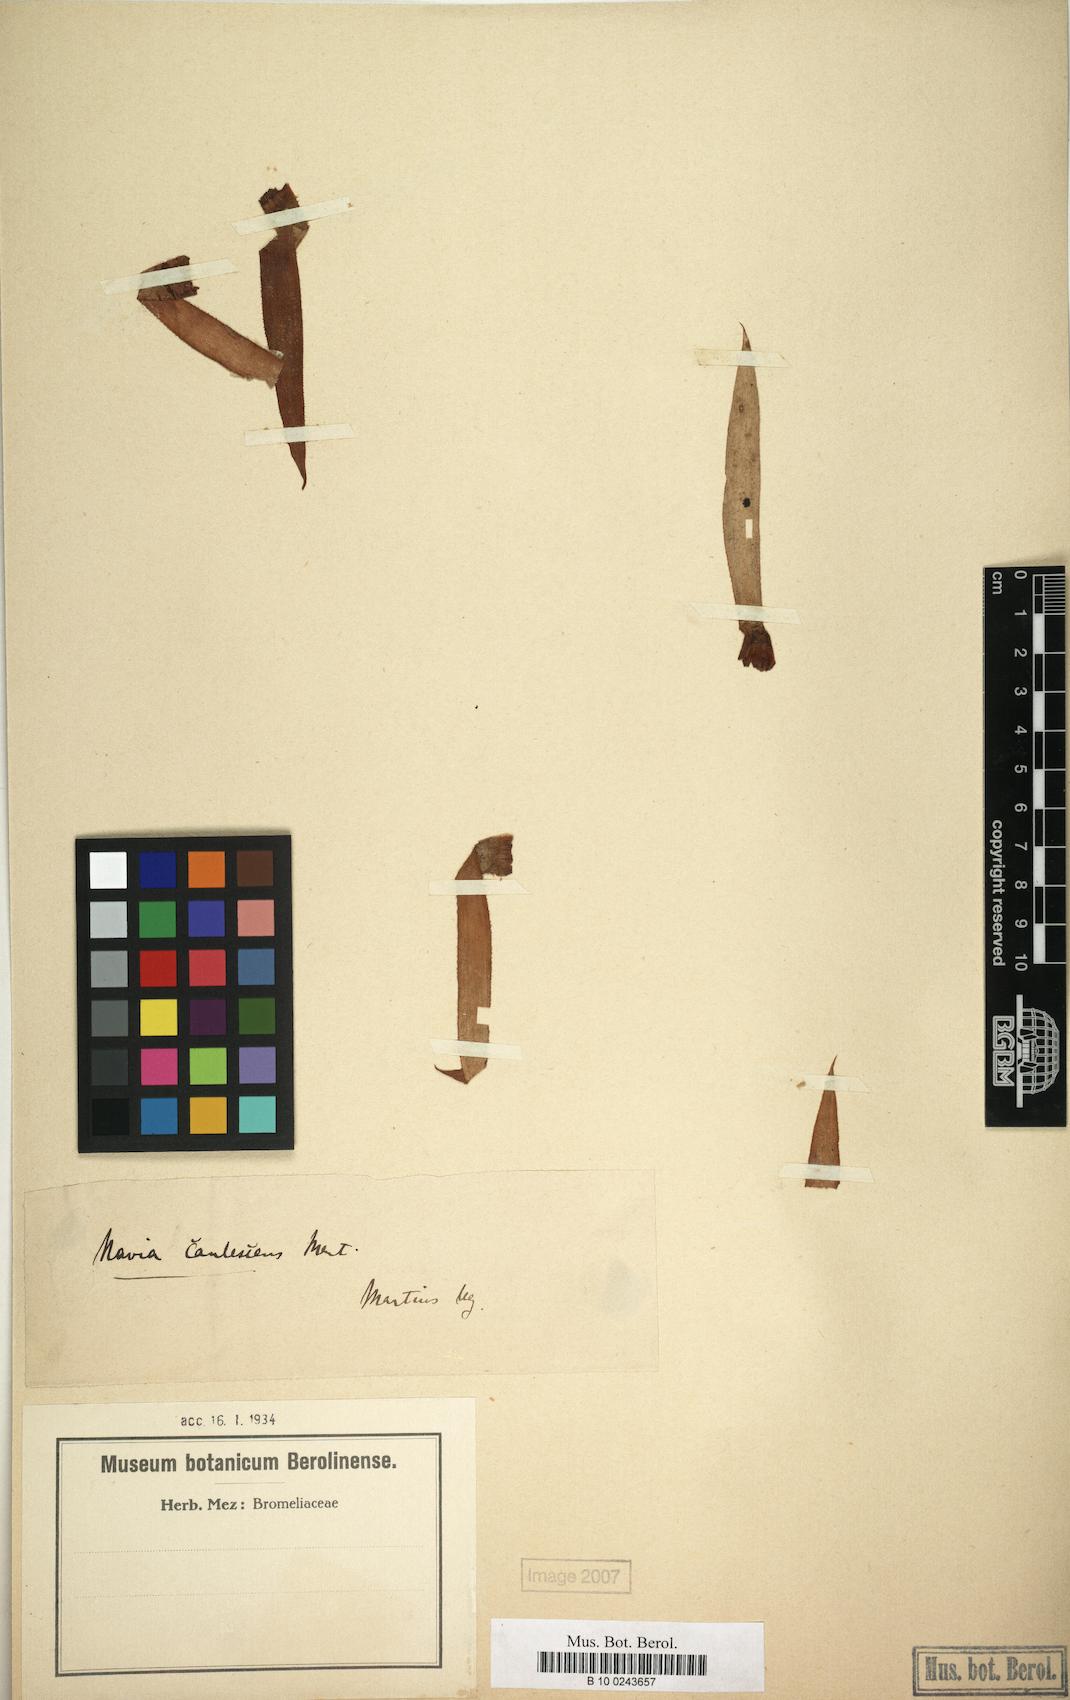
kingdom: Plantae
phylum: Tracheophyta
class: Liliopsida
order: Poales
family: Bromeliaceae
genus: Navia
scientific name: Navia caulescens
